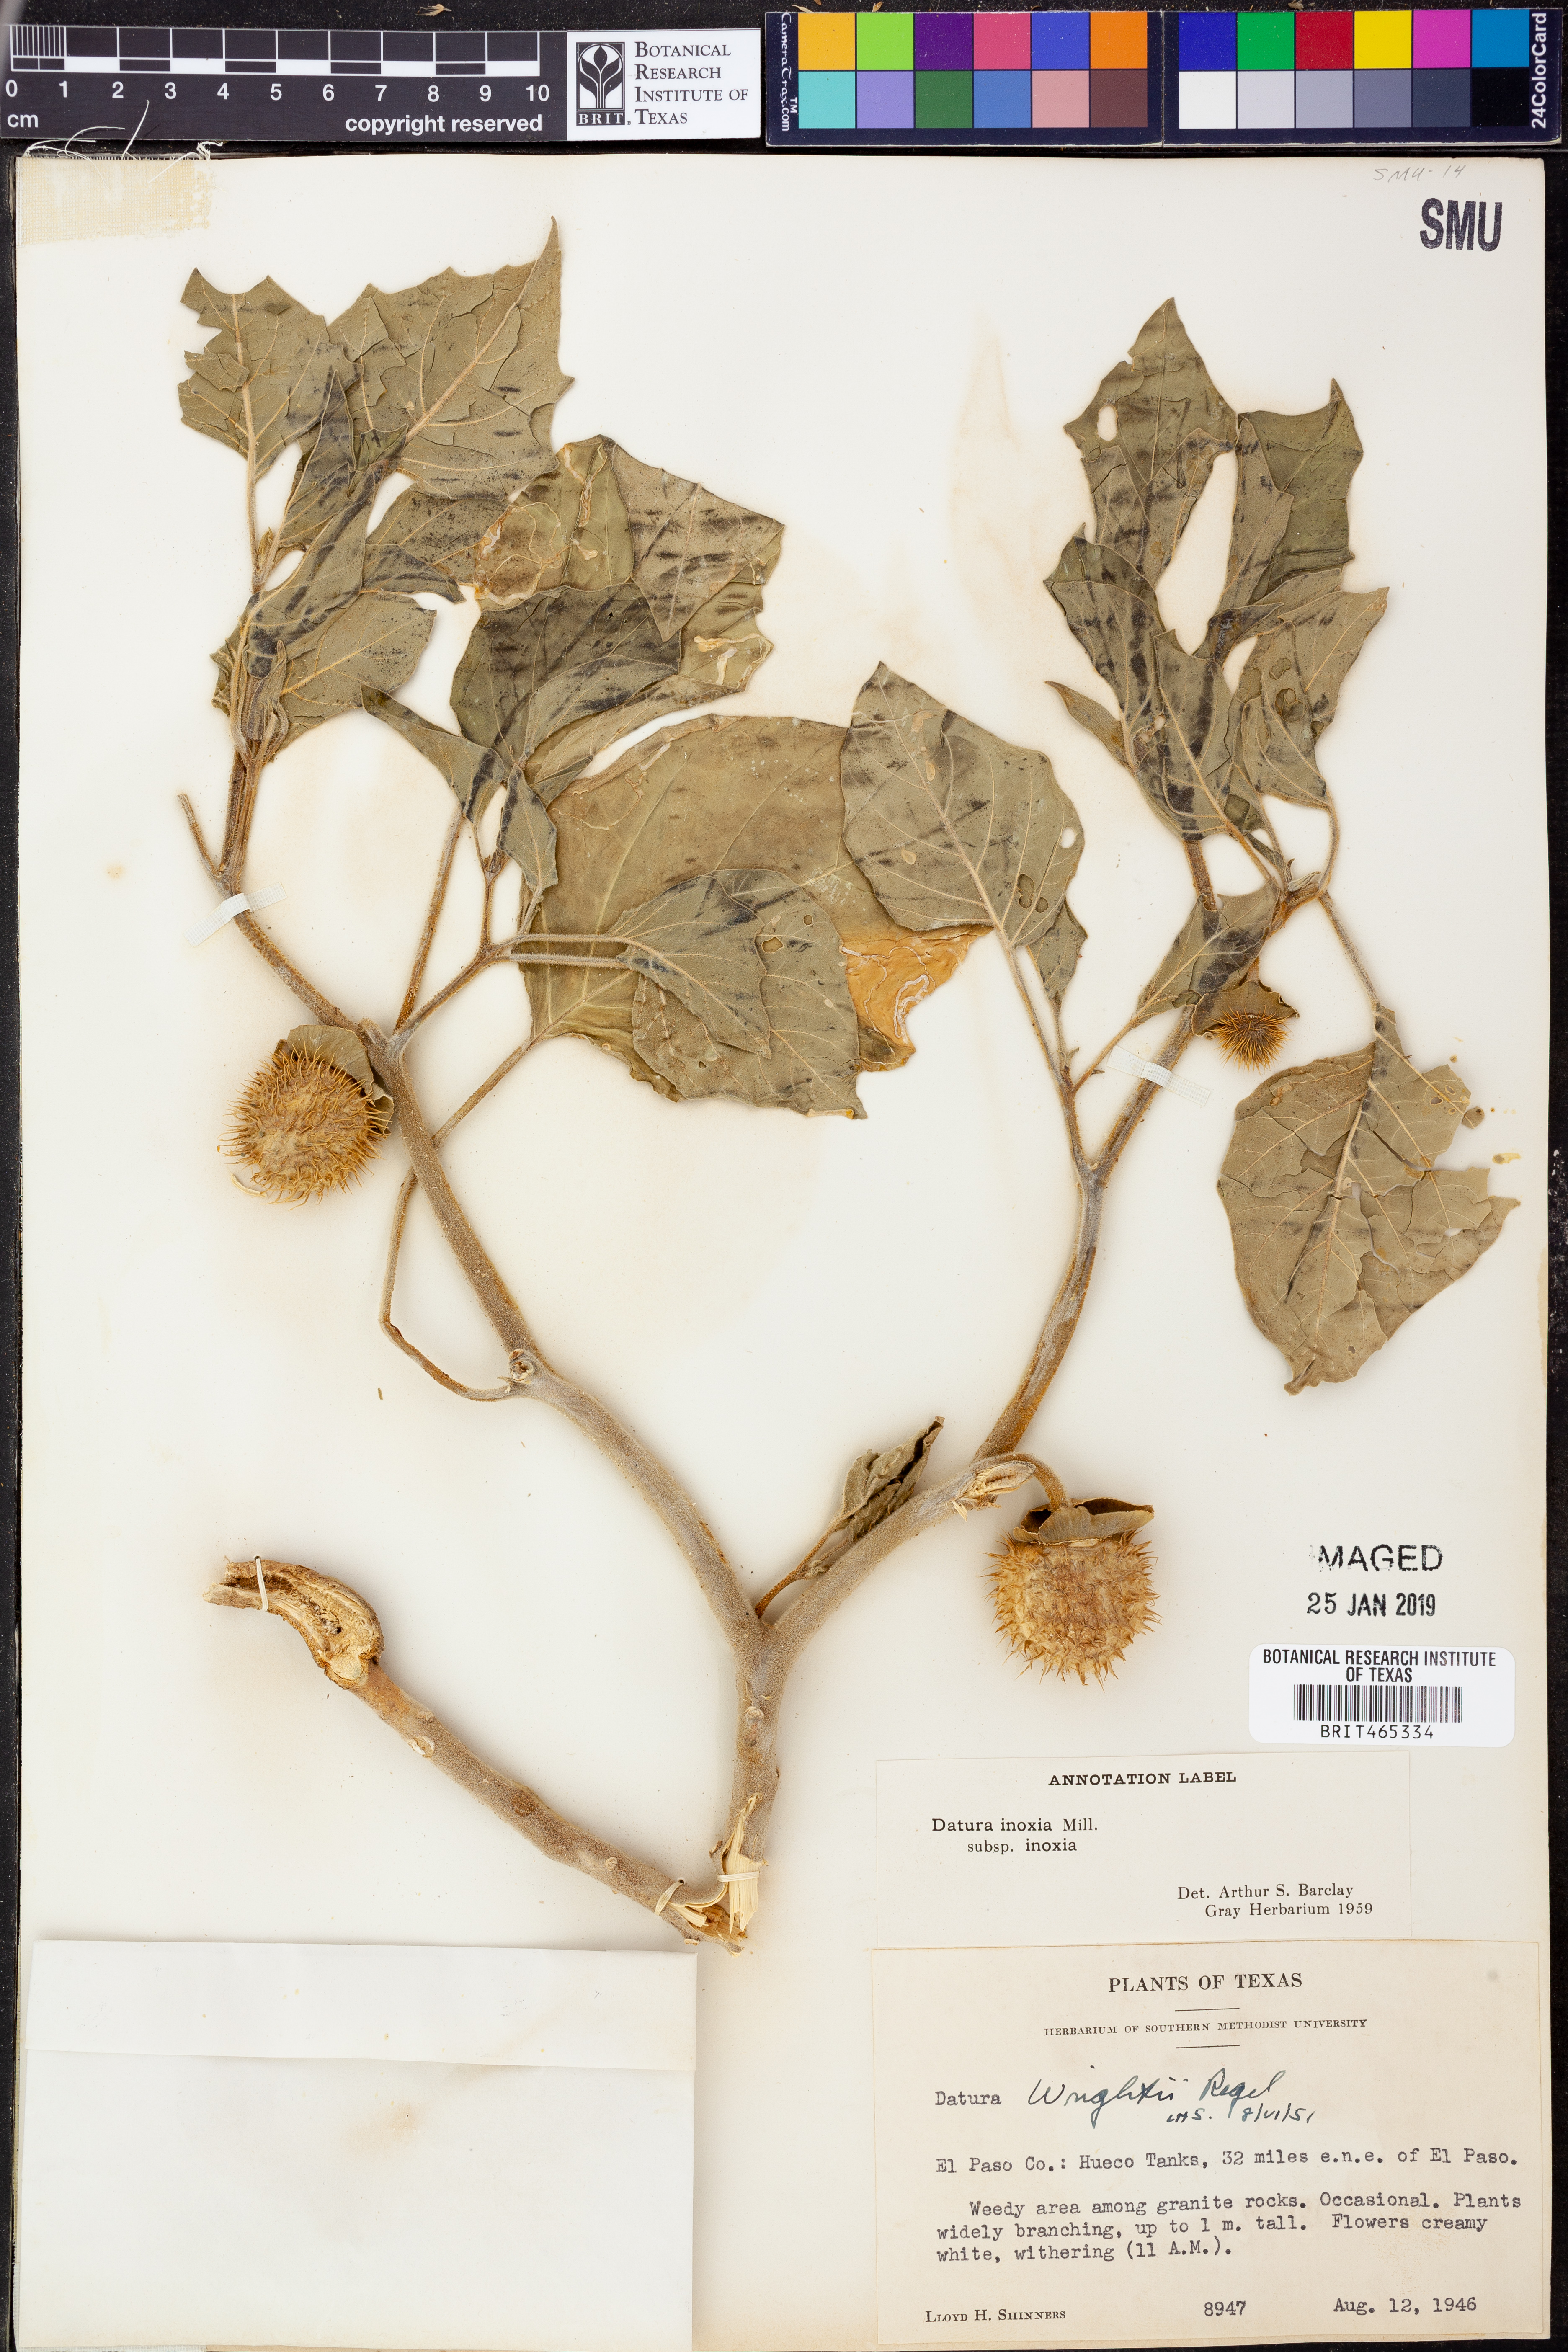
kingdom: Plantae
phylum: Tracheophyta
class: Magnoliopsida
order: Solanales
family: Solanaceae
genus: Datura
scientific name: Datura innoxia
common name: Downy thorn-apple
